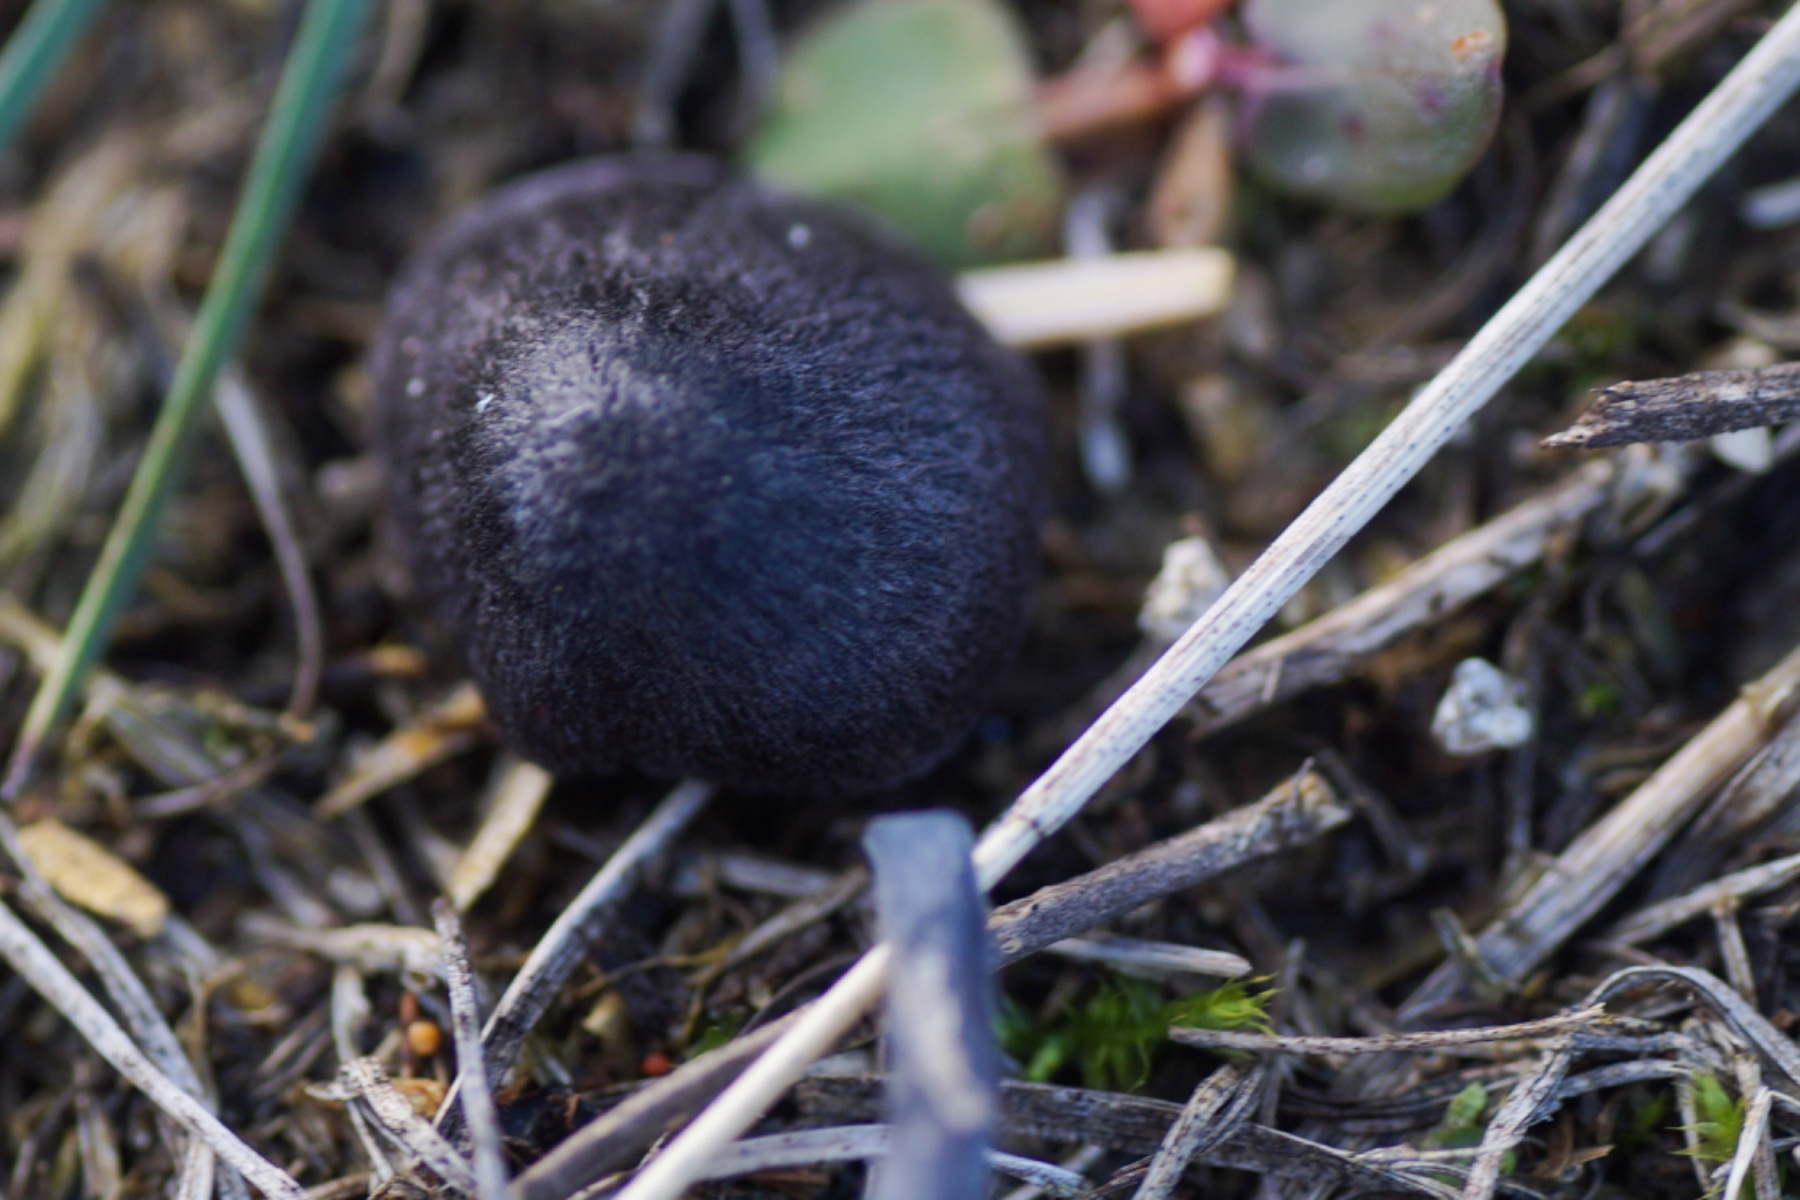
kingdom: Fungi
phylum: Basidiomycota
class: Agaricomycetes
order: Agaricales
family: Entolomataceae
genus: Entoloma
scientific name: Entoloma percoelestinum
